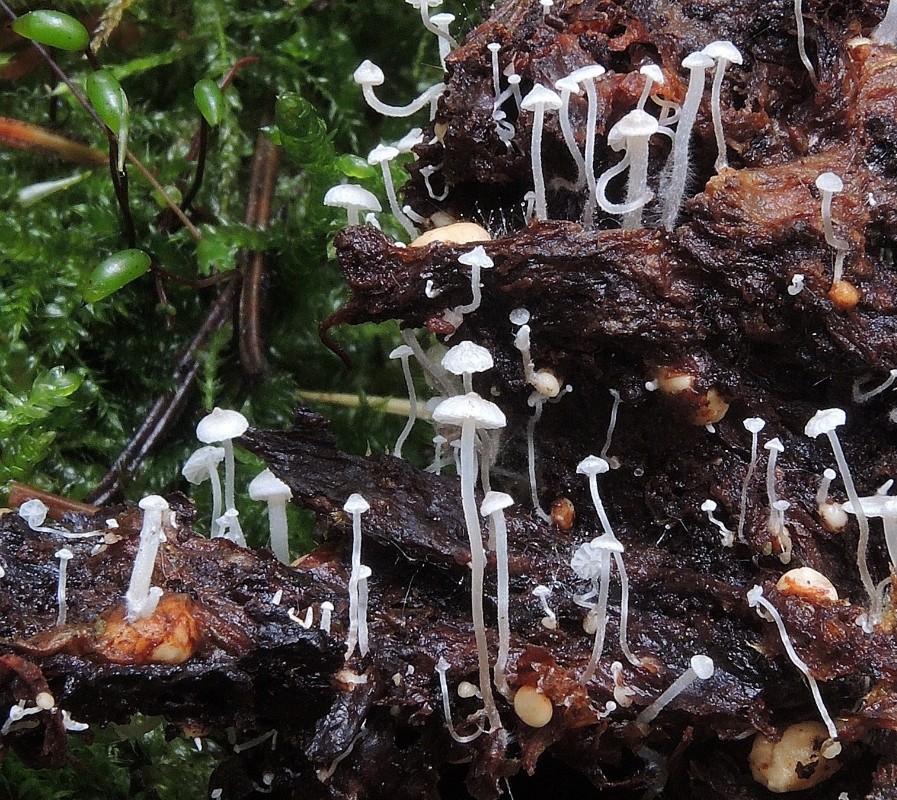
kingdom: Fungi
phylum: Basidiomycota
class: Agaricomycetes
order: Agaricales
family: Tricholomataceae
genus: Collybia
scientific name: Collybia cookei
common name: gulknoldet lighat
